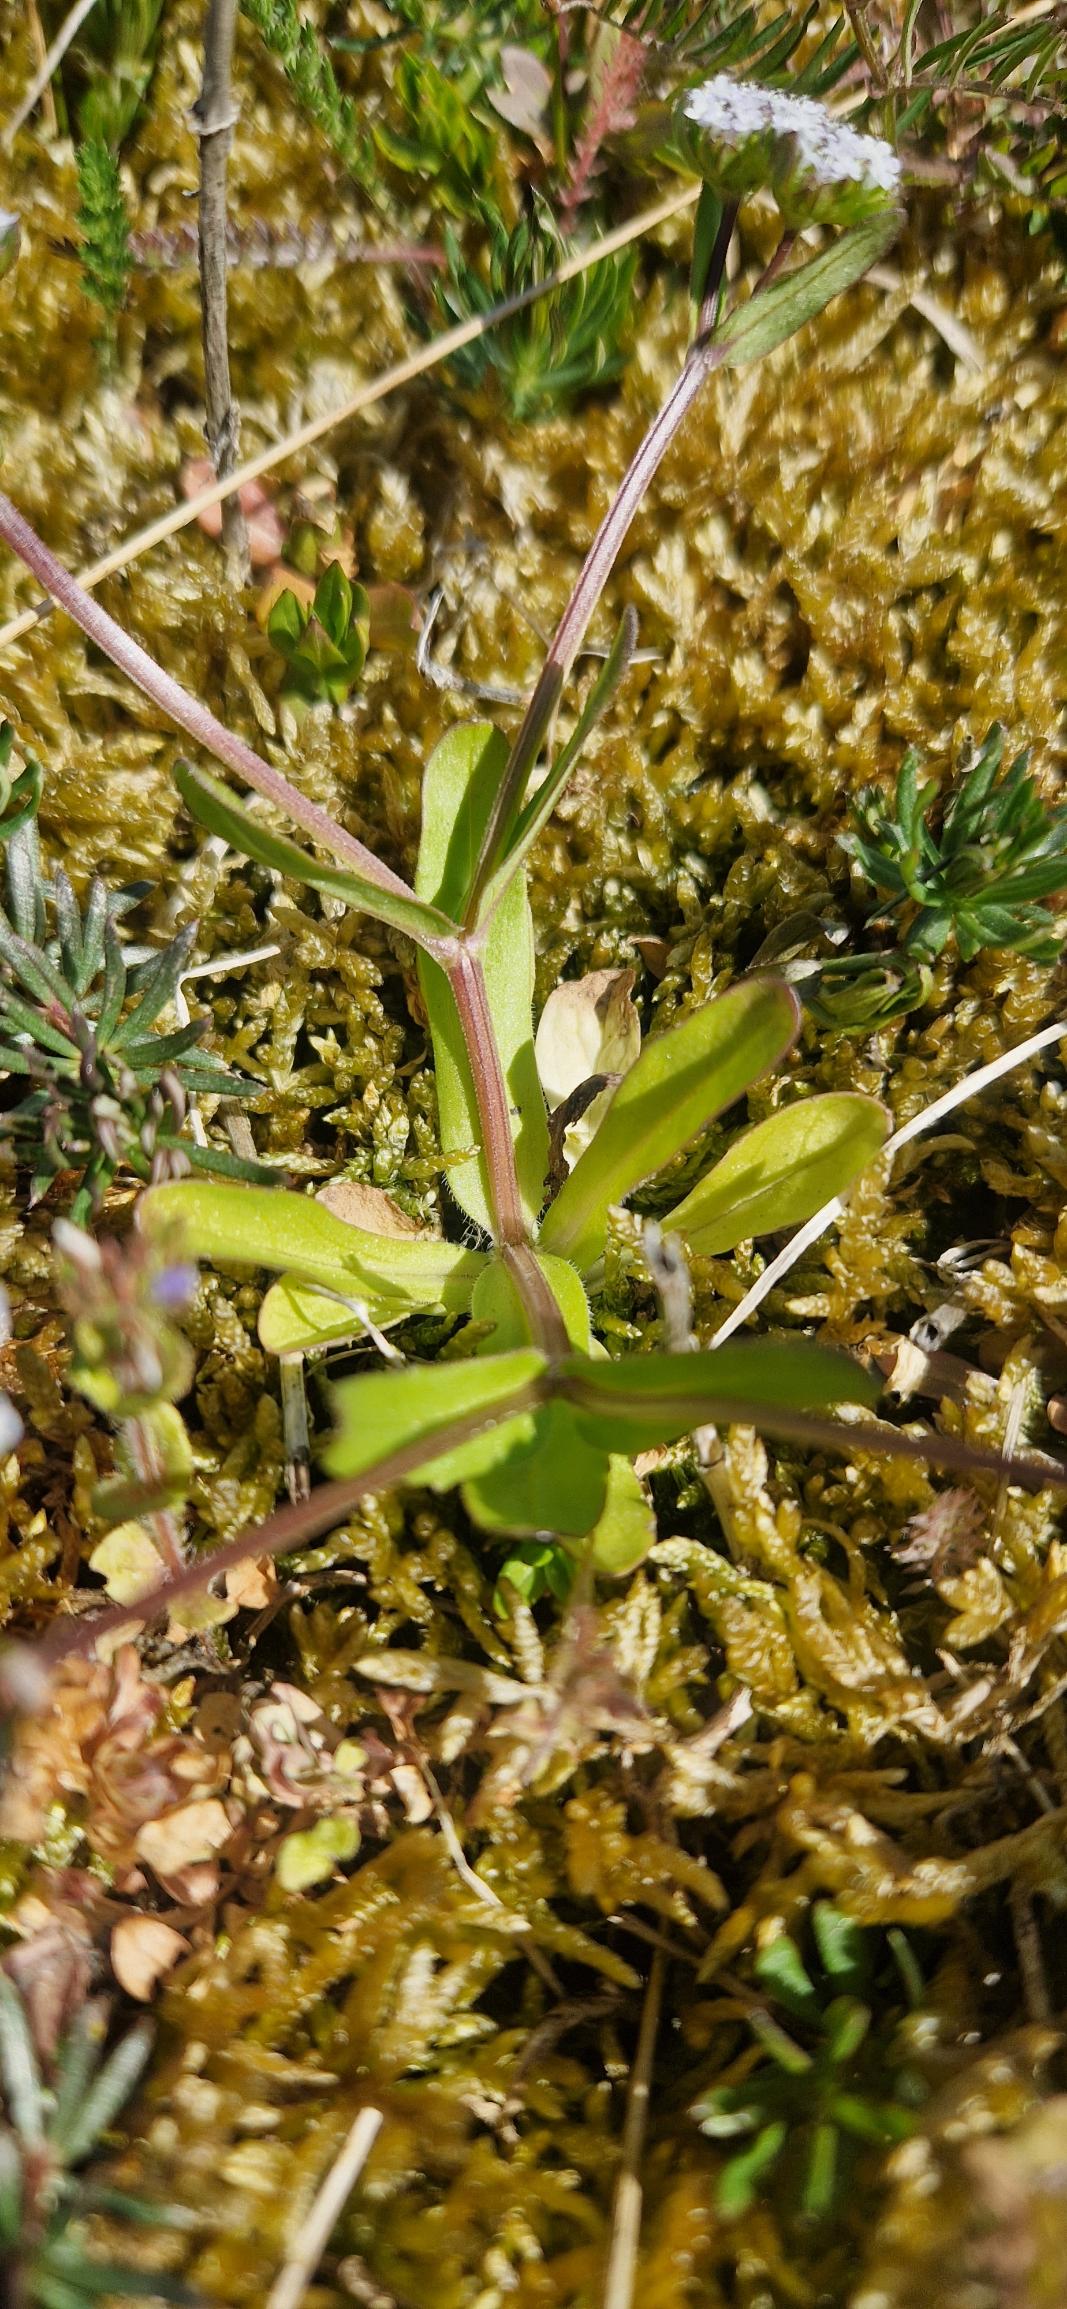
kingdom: Plantae
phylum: Tracheophyta
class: Magnoliopsida
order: Dipsacales
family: Caprifoliaceae
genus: Valerianella
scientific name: Valerianella locusta
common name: Tandfri vårsalat
